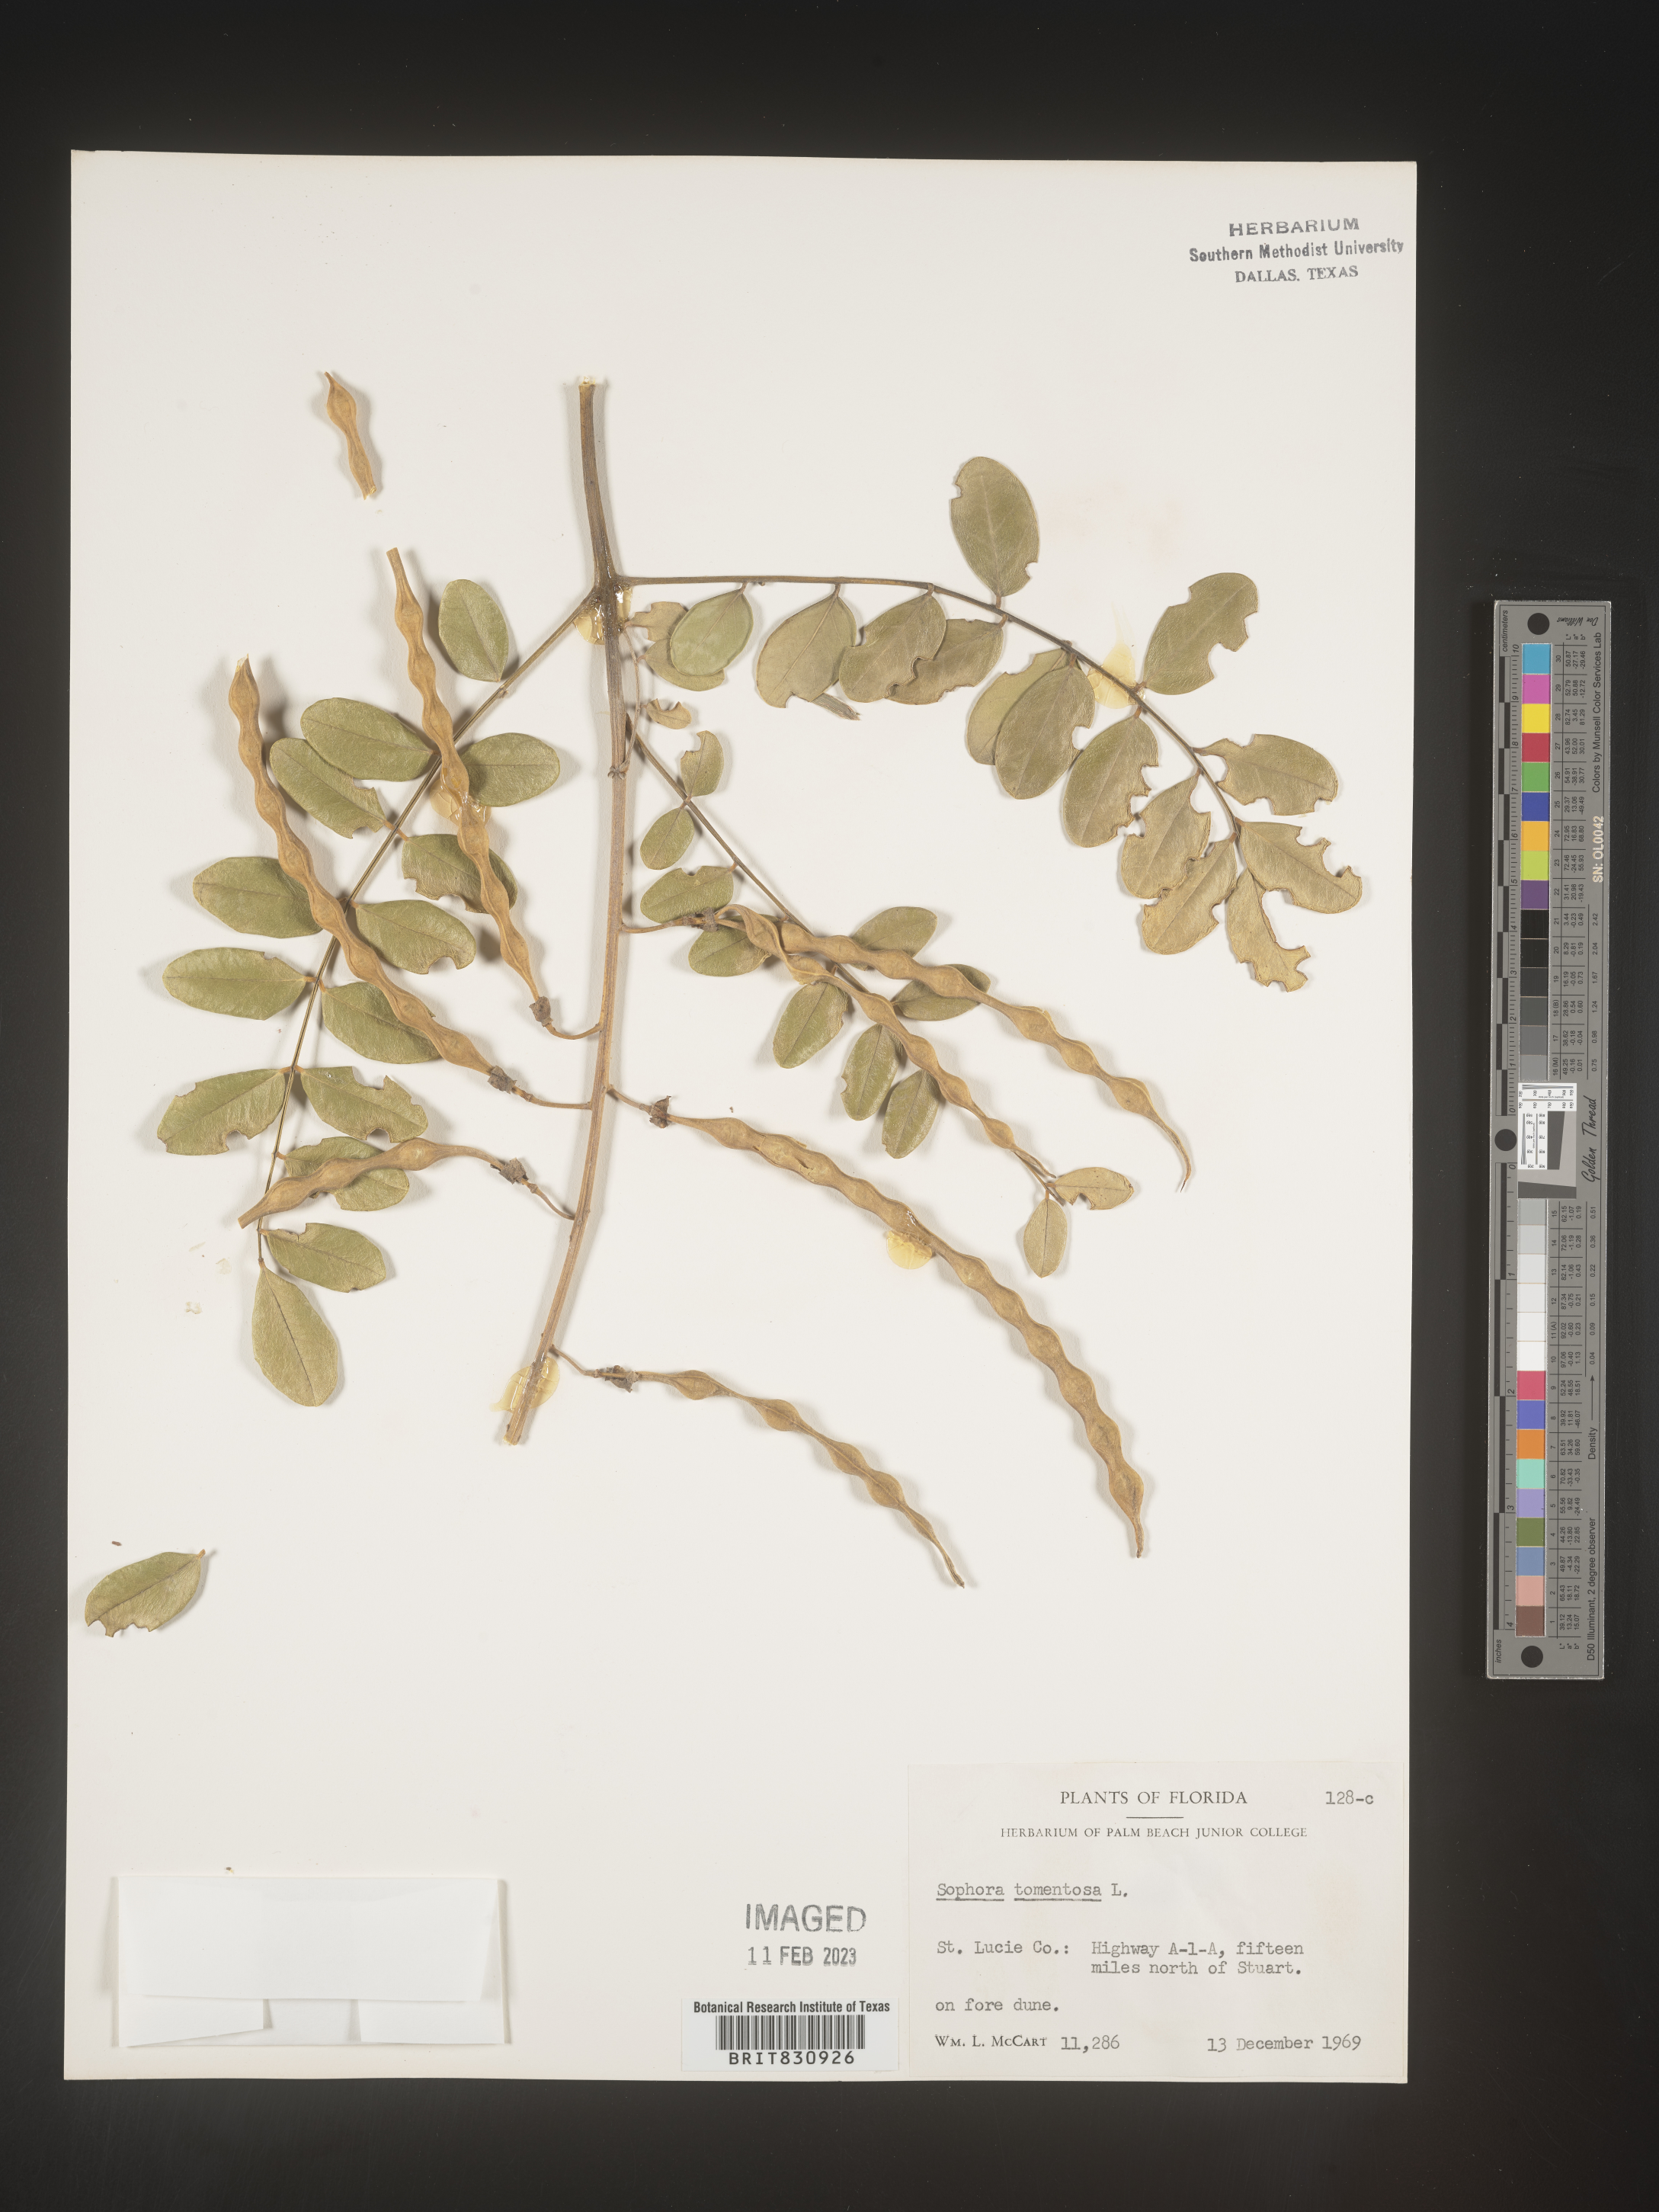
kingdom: Plantae
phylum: Tracheophyta
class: Magnoliopsida
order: Fabales
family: Fabaceae
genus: Sophora
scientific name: Sophora
